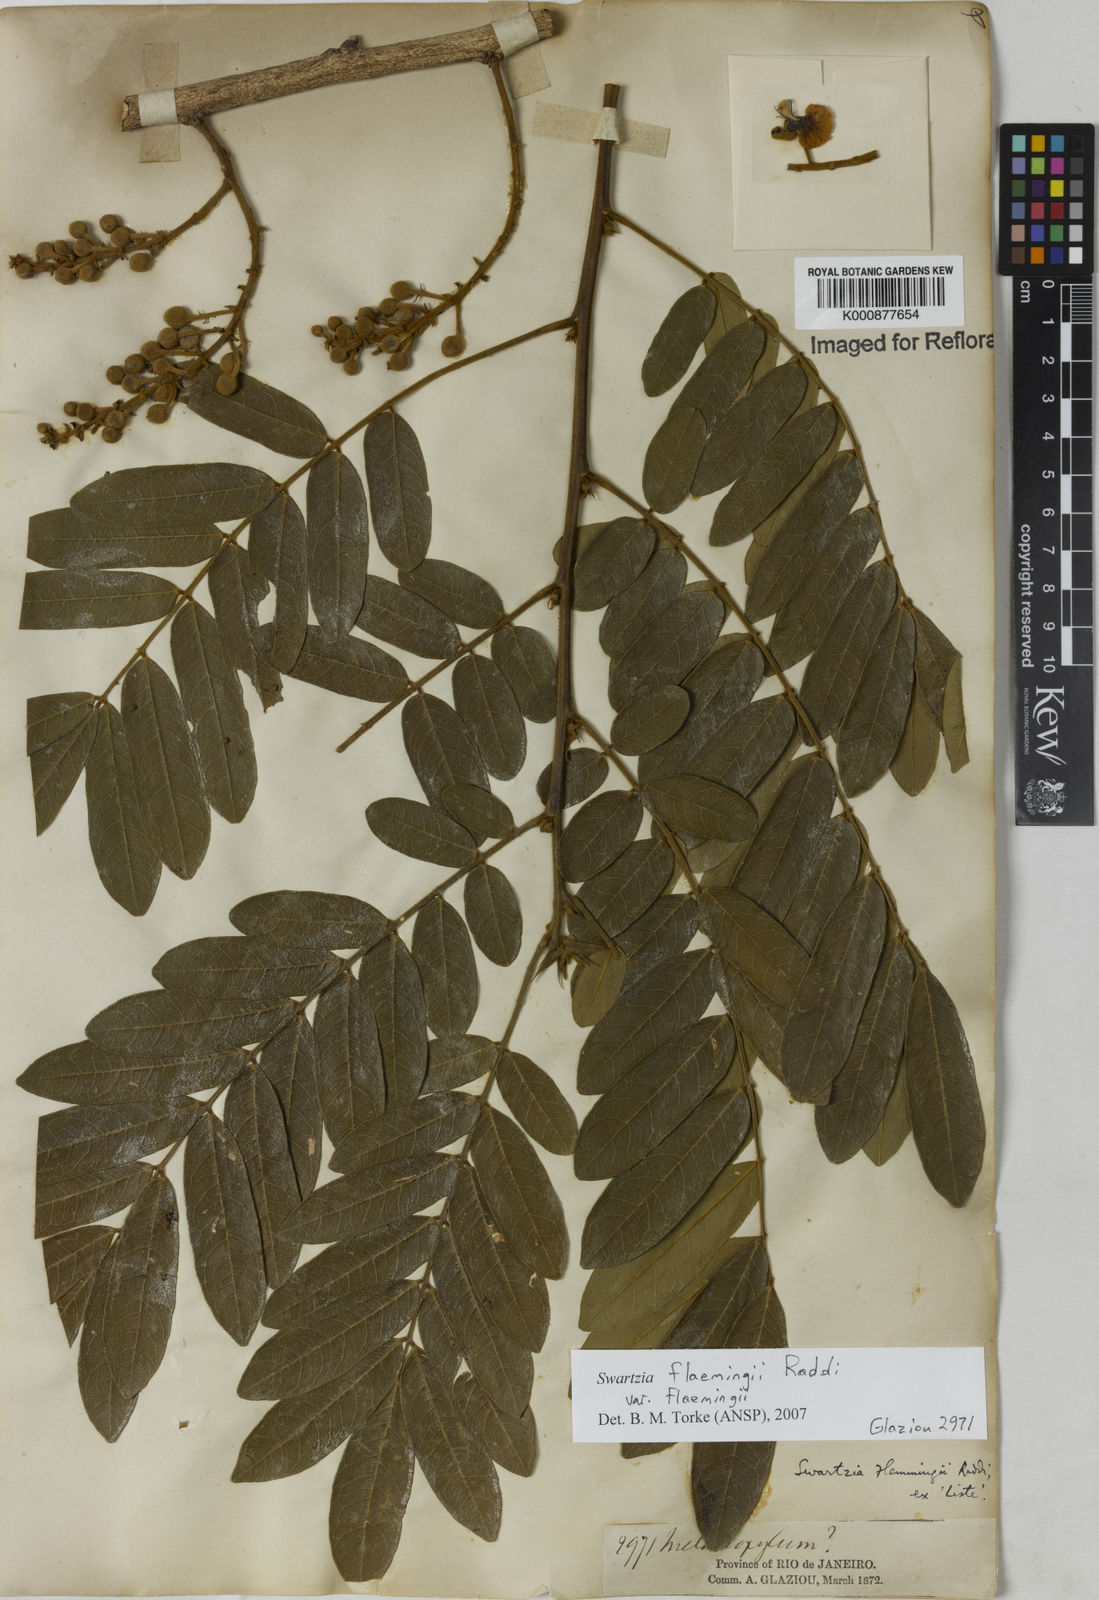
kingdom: Plantae
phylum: Tracheophyta
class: Magnoliopsida
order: Fabales
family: Fabaceae
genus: Swartzia
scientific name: Swartzia flaemingii
